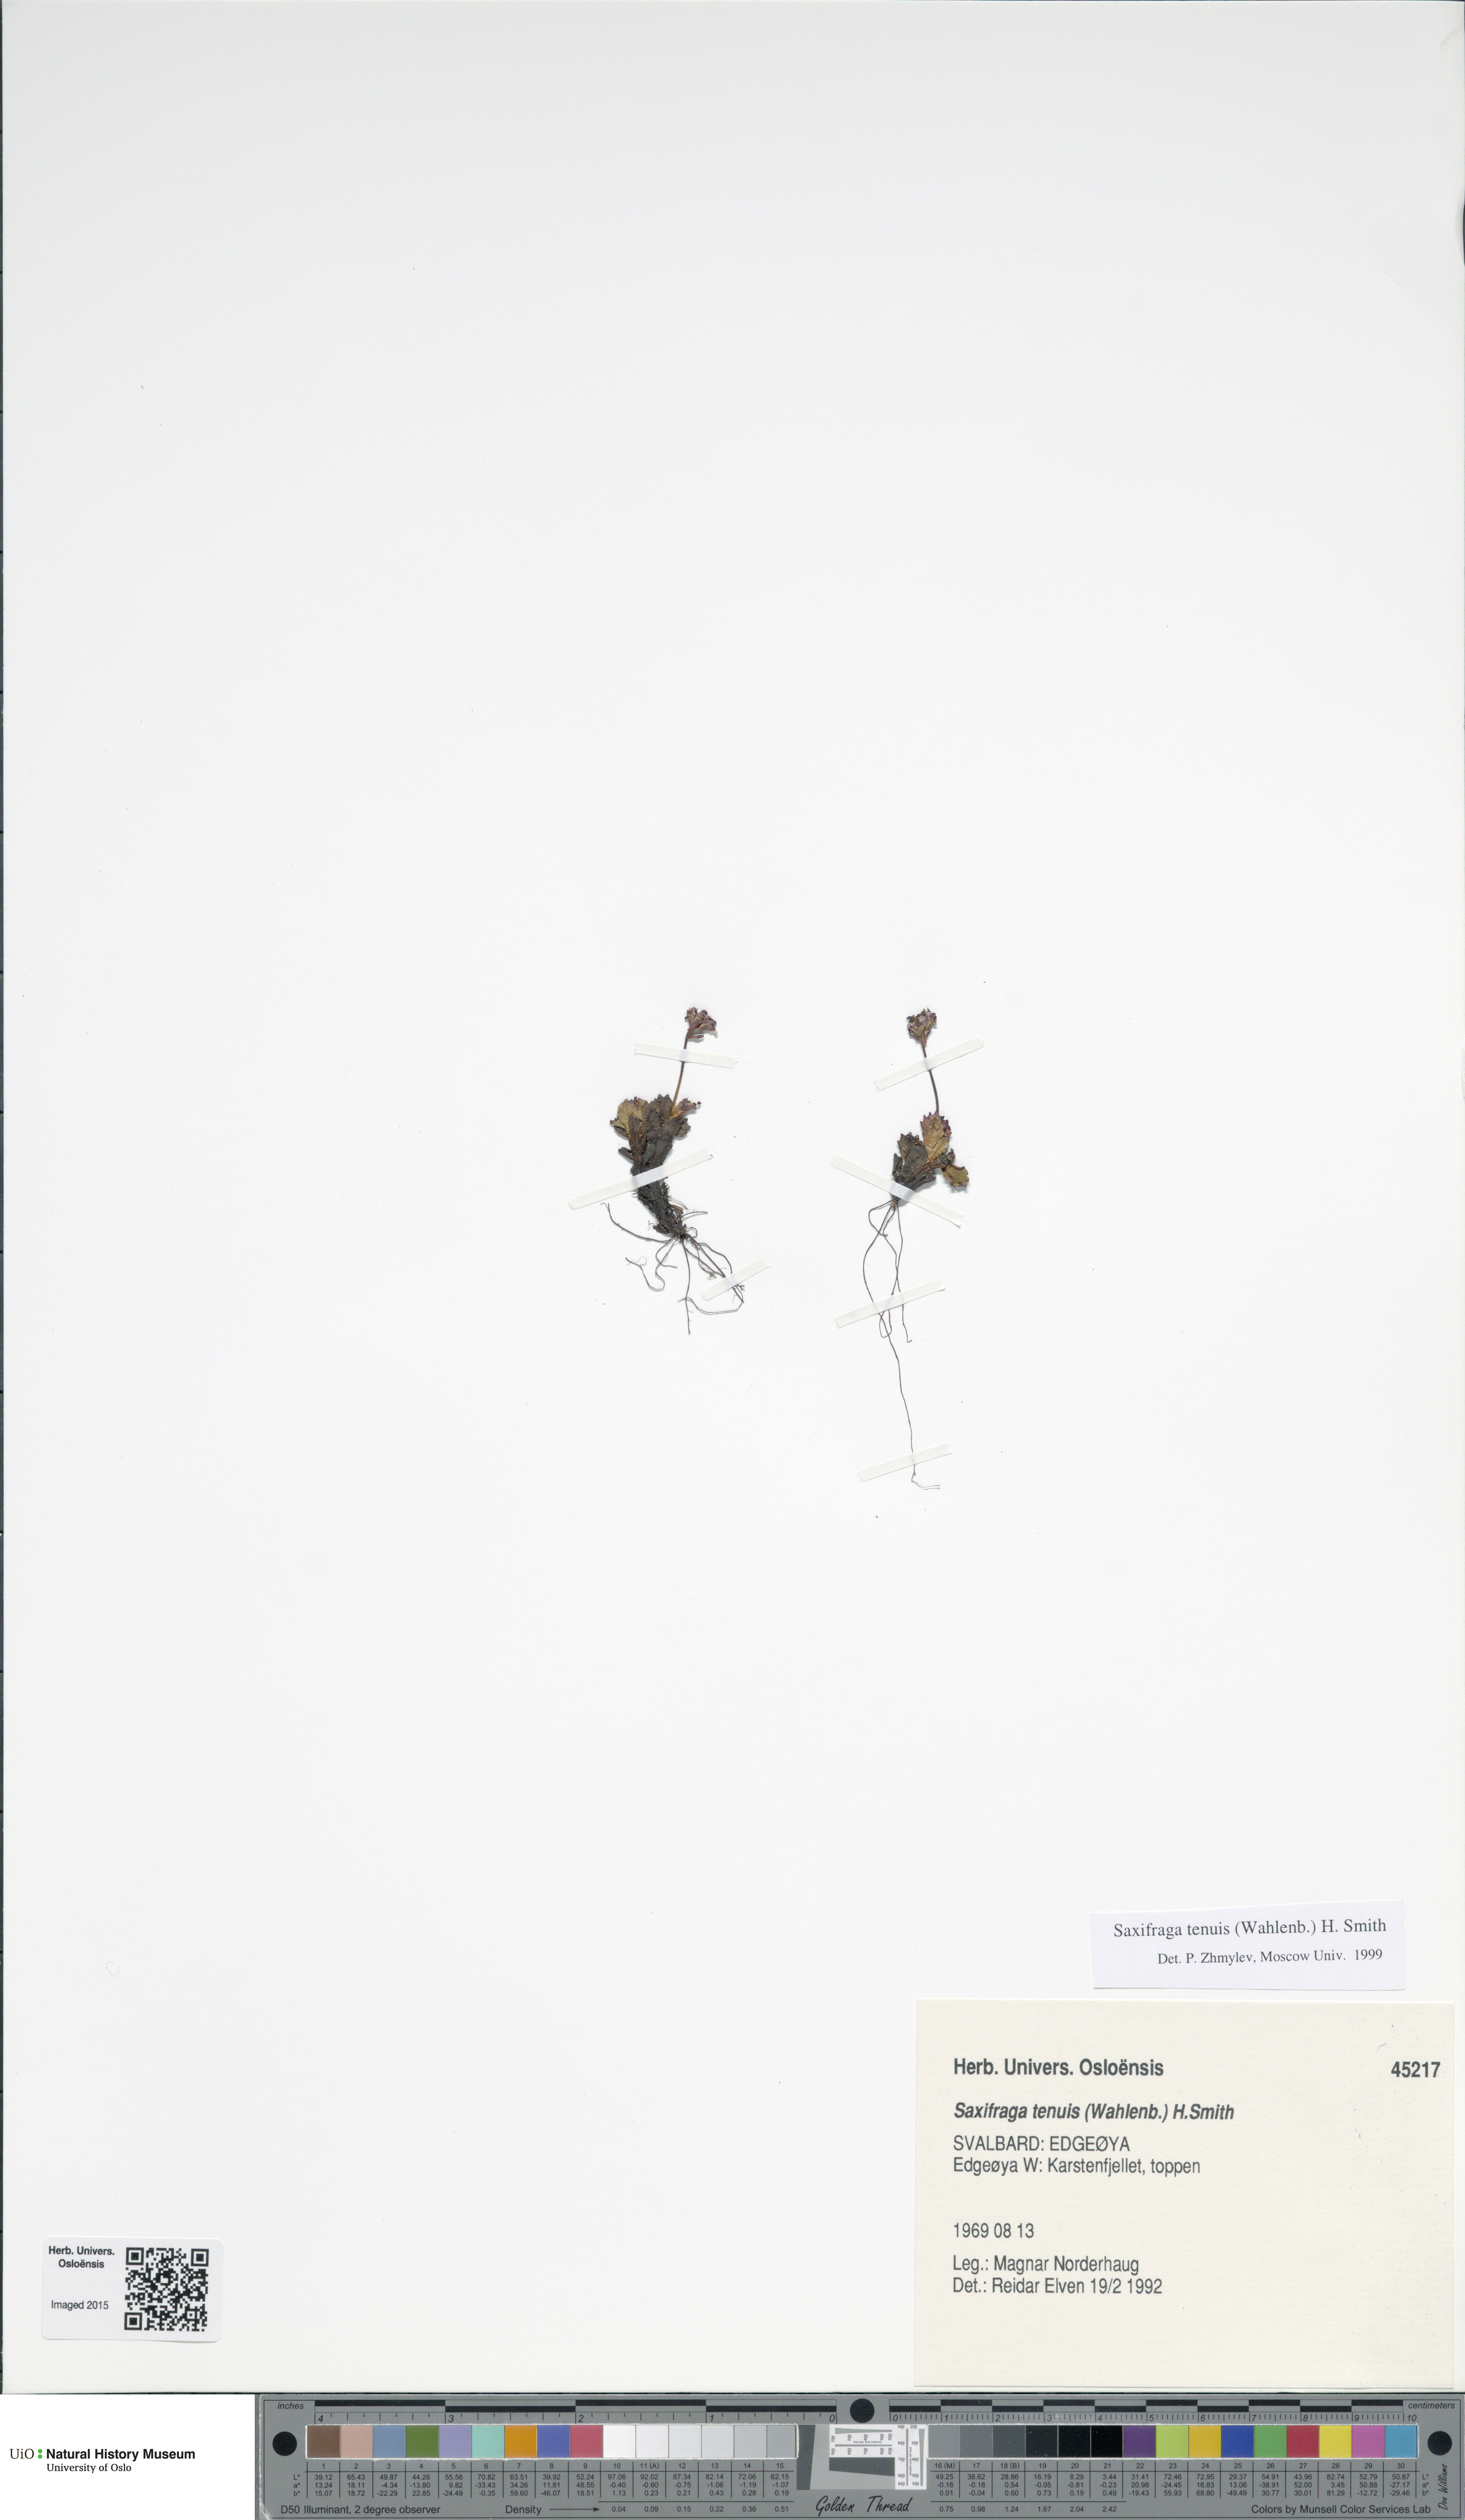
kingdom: Plantae
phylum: Tracheophyta
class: Magnoliopsida
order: Saxifragales
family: Saxifragaceae
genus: Micranthes
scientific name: Micranthes tenuis
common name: Ottertail pass saxifrage
